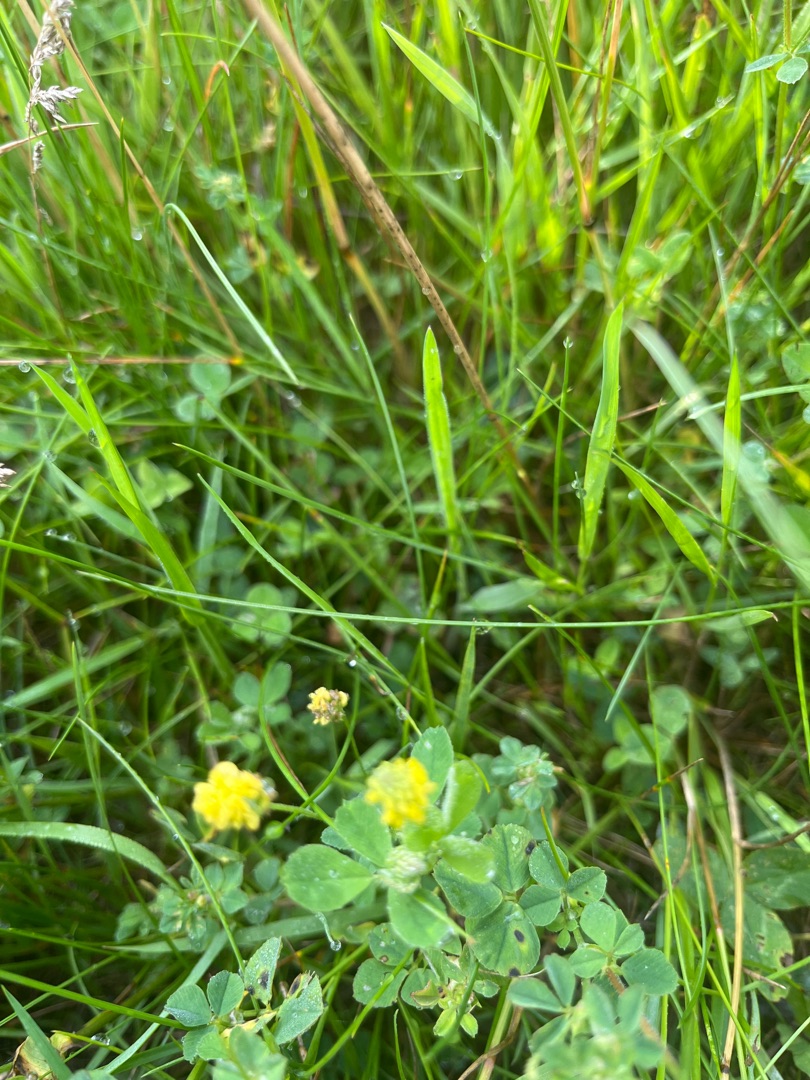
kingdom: Plantae
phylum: Tracheophyta
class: Magnoliopsida
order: Fabales
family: Fabaceae
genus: Medicago
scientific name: Medicago lupulina
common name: Humle-sneglebælg
